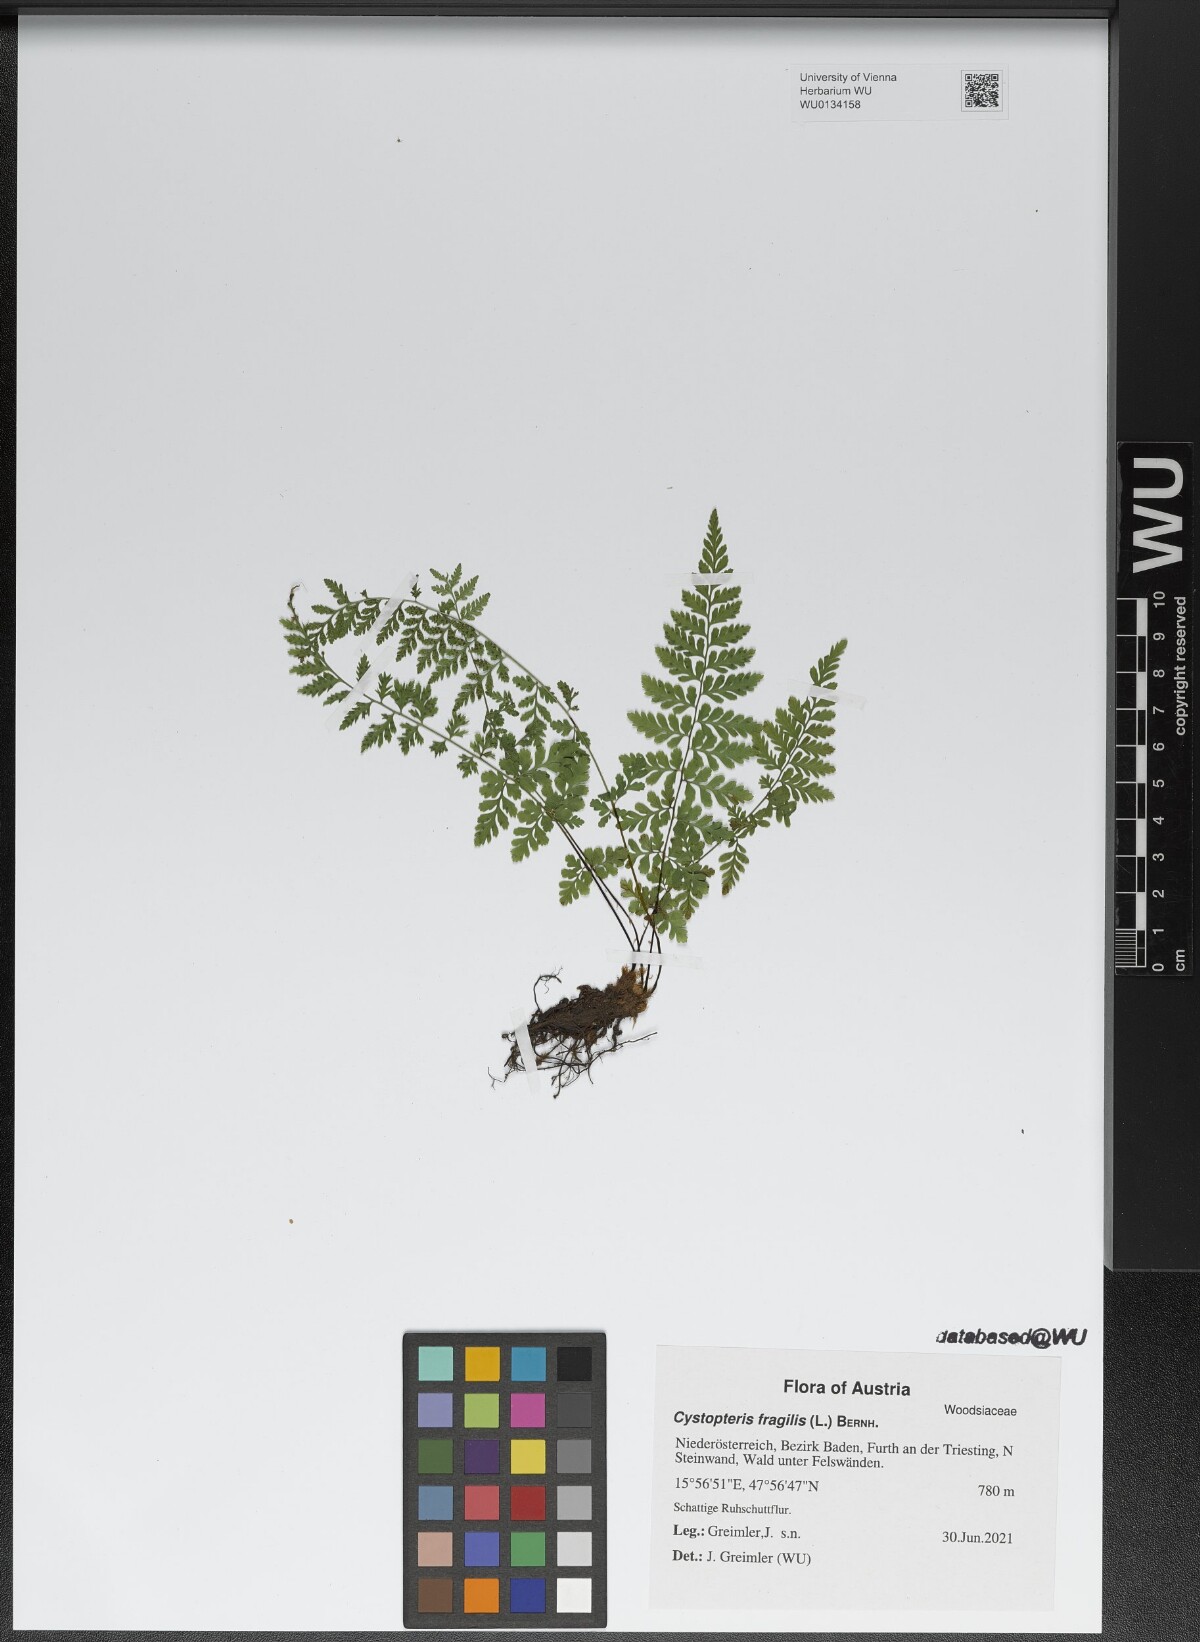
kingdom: Plantae
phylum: Tracheophyta
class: Polypodiopsida
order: Polypodiales
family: Cystopteridaceae
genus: Cystopteris
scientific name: Cystopteris fragilis
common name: Brittle bladder fern
